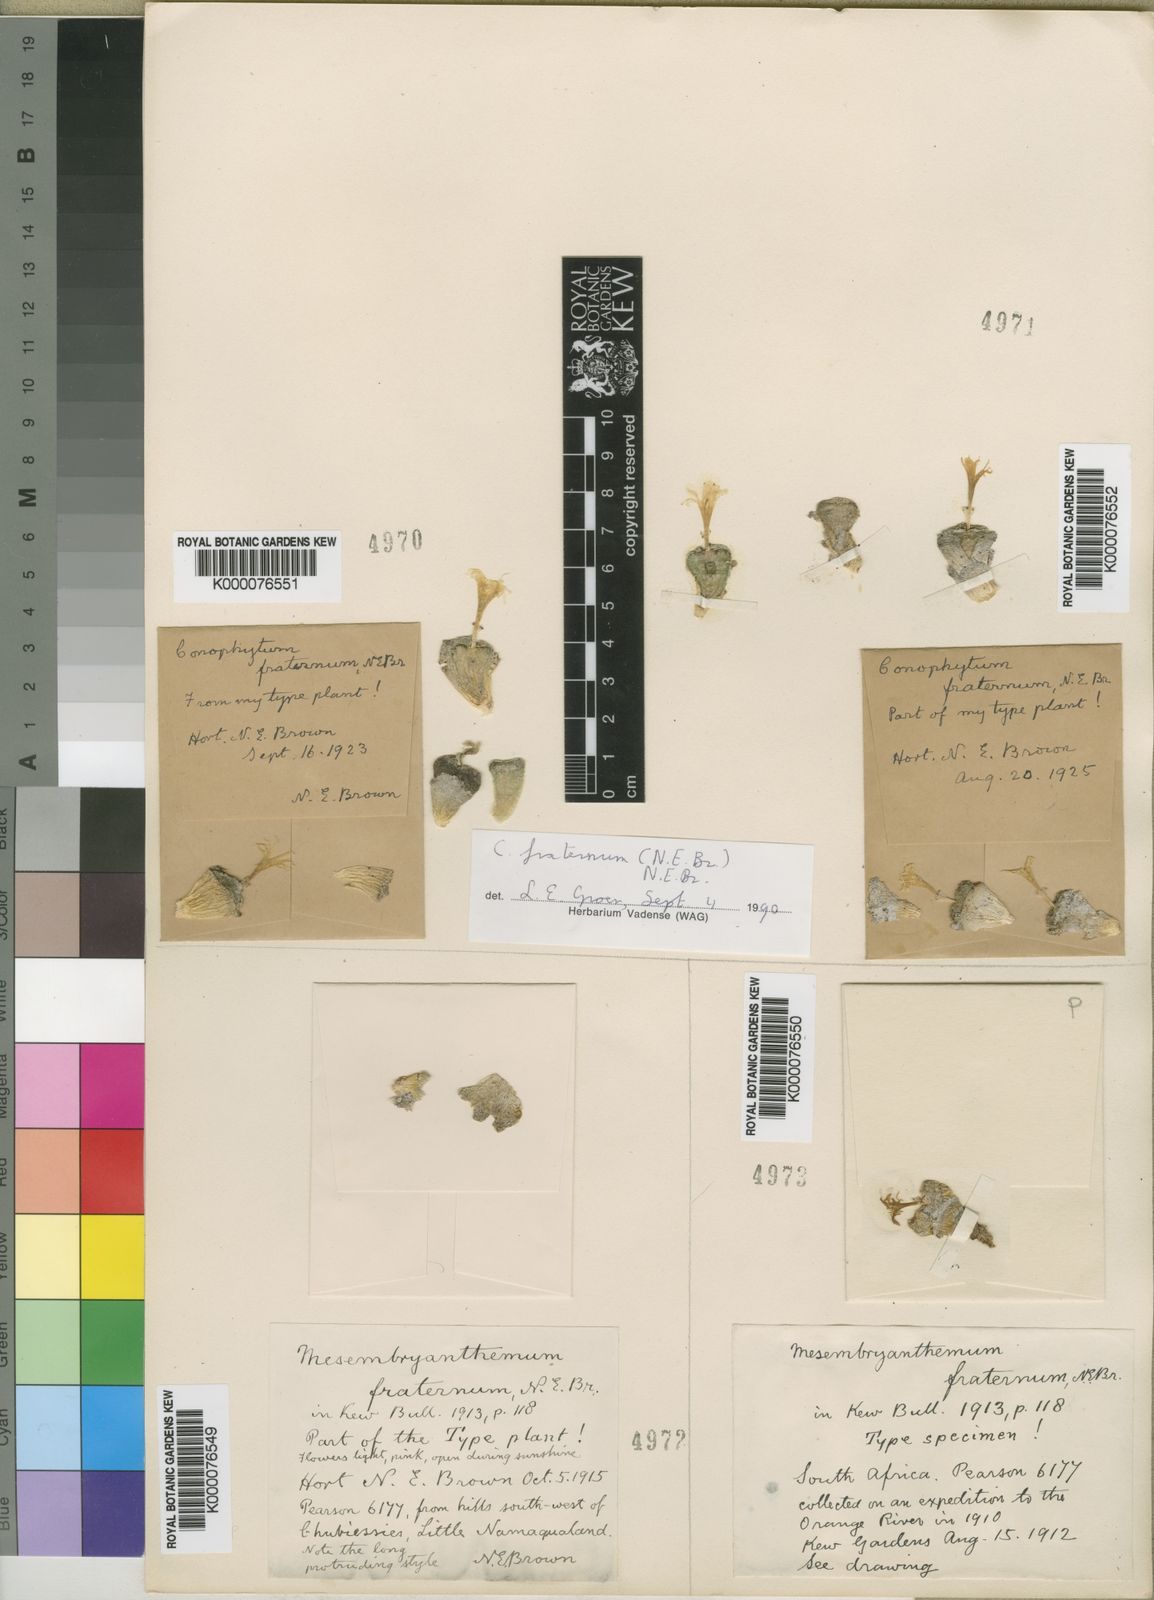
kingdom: Plantae
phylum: Tracheophyta
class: Magnoliopsida
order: Caryophyllales
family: Aizoaceae
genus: Conophytum
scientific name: Conophytum fraternum
